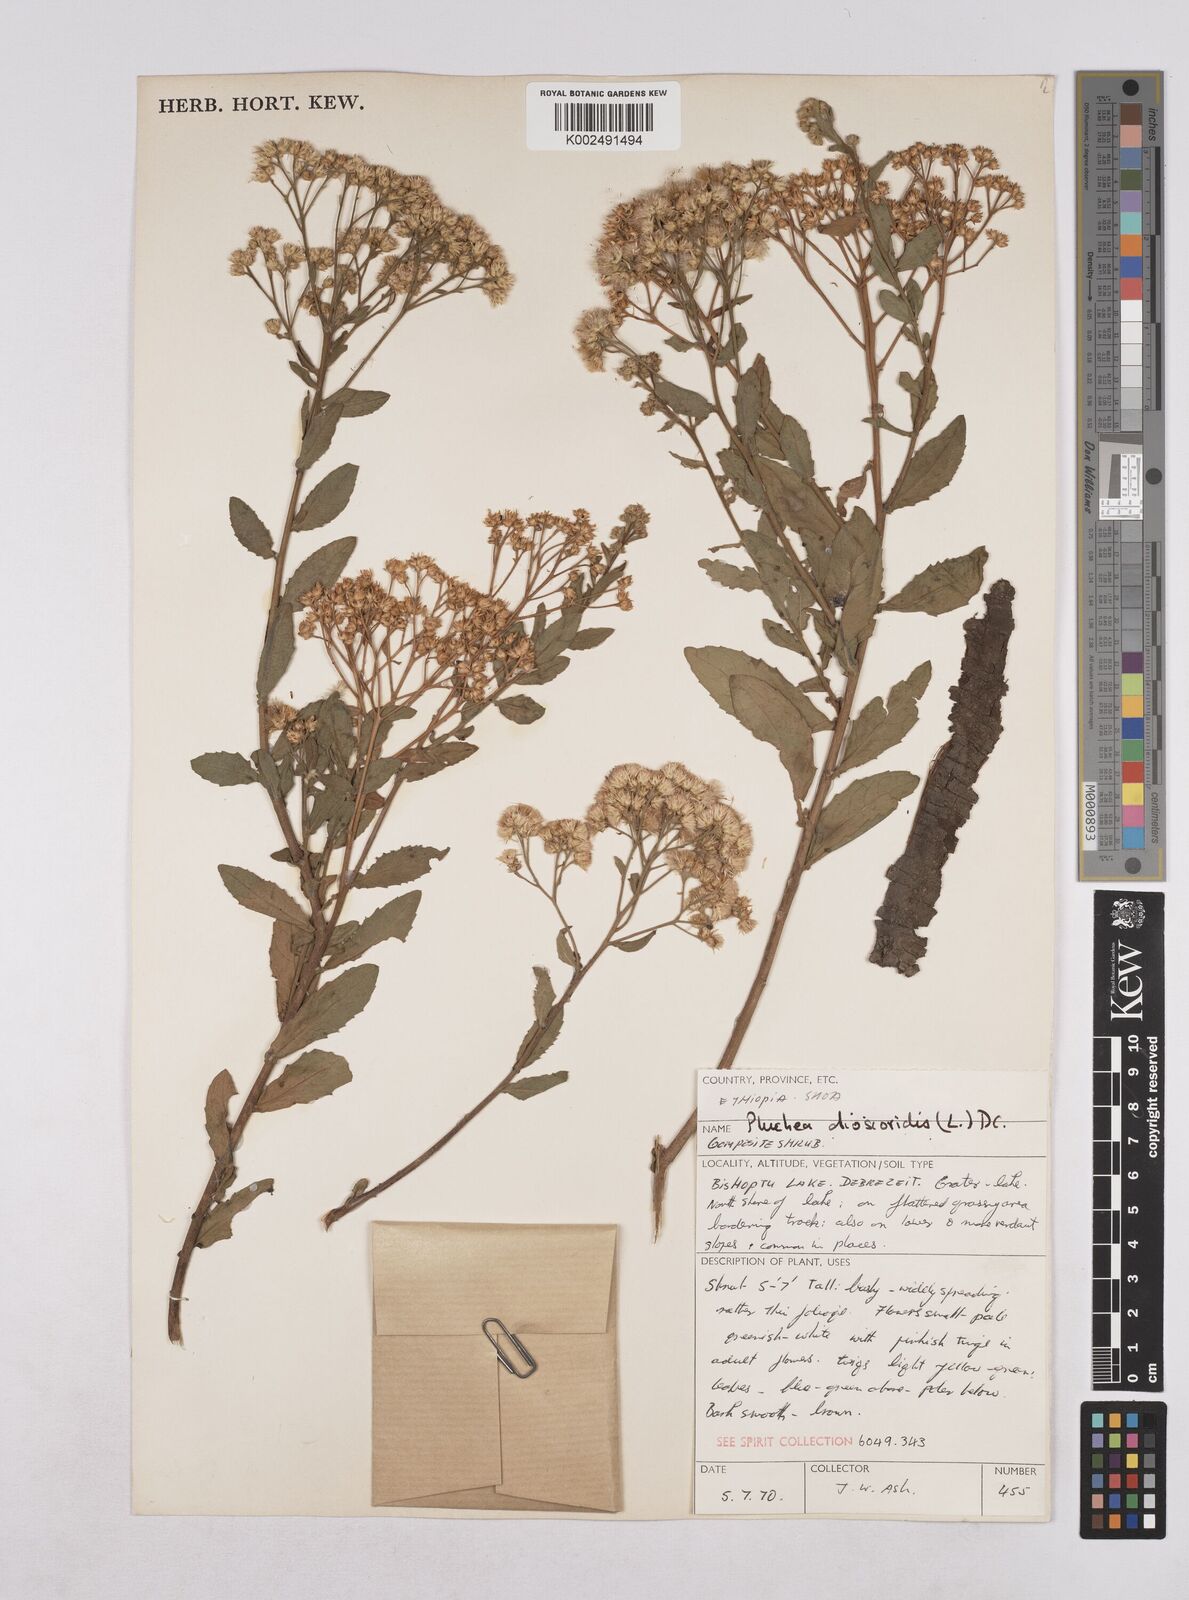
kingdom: Plantae
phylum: Tracheophyta
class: Magnoliopsida
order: Asterales
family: Asteraceae
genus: Pluchea
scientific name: Pluchea dioscoridis
